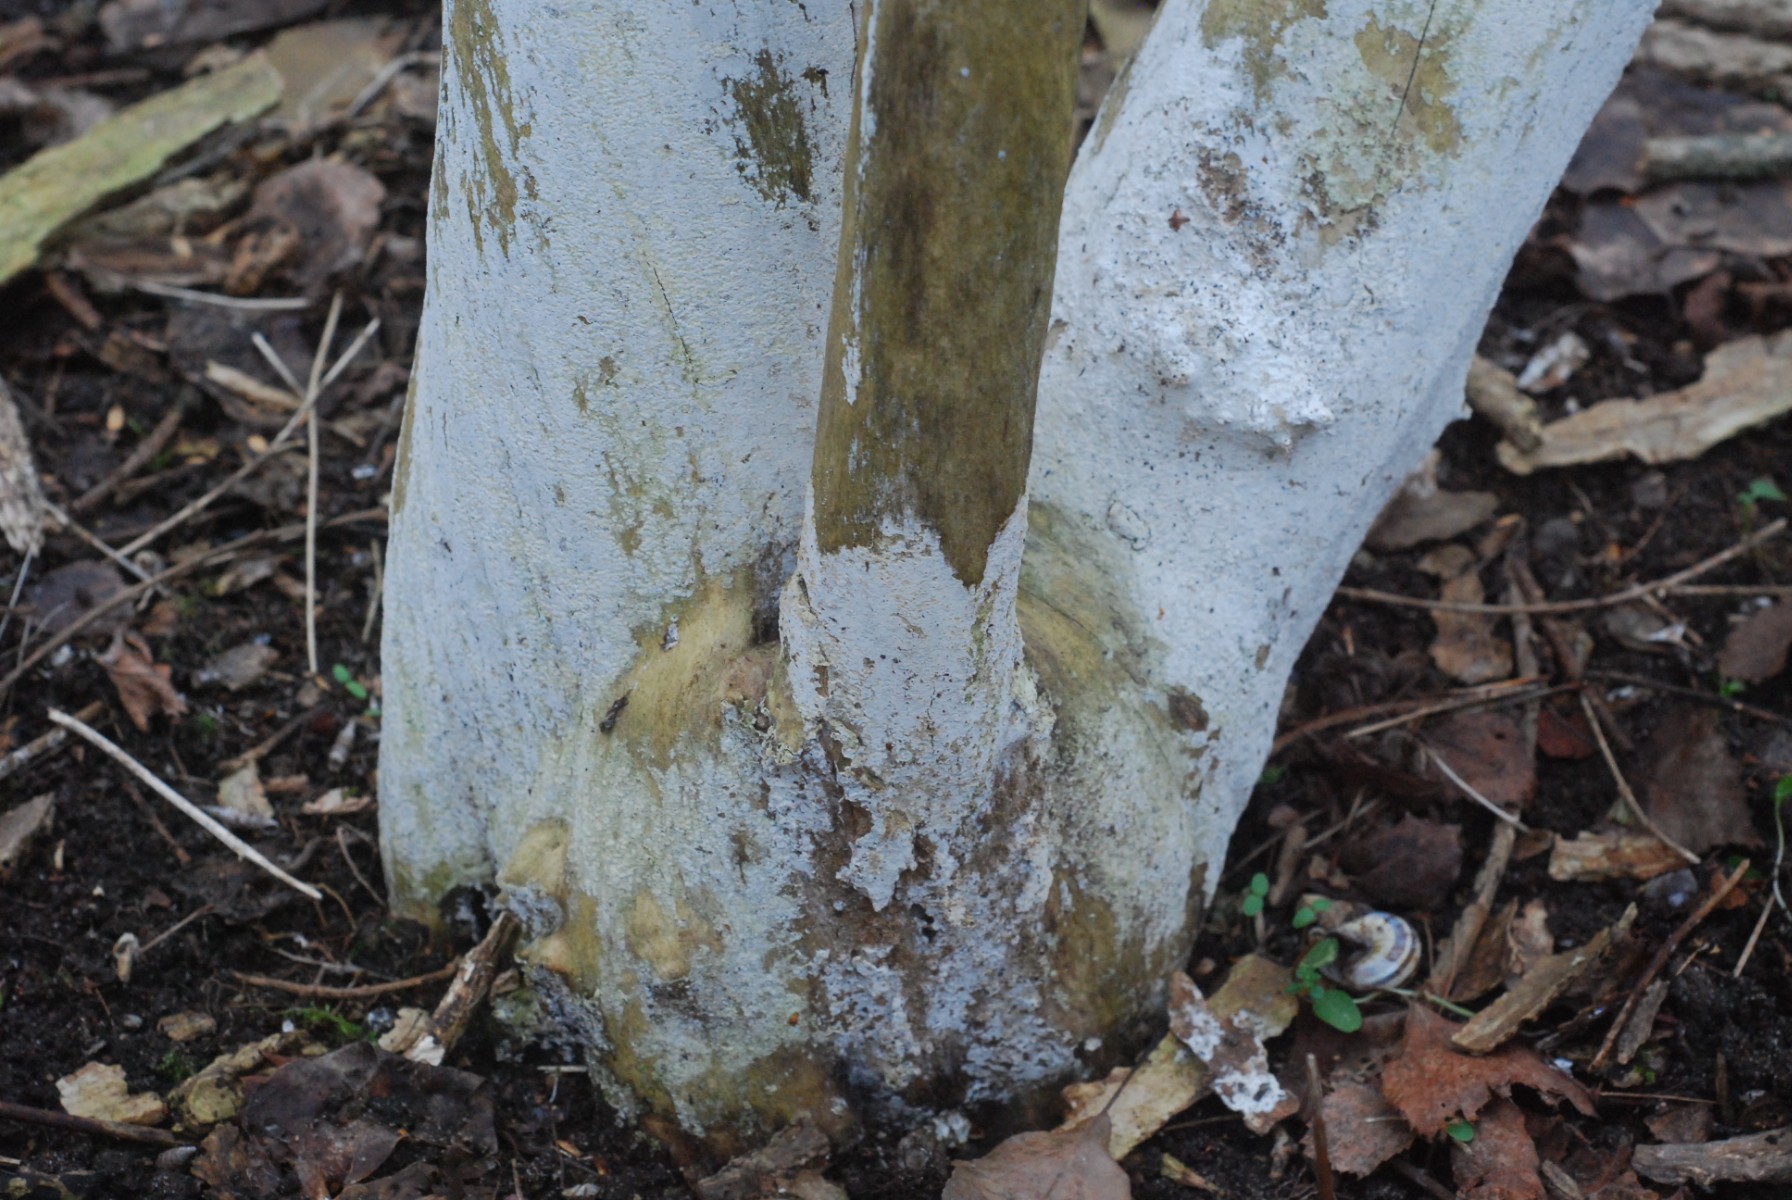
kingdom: Fungi
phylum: Basidiomycota
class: Agaricomycetes
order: Corticiales
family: Corticiaceae
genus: Lyomyces
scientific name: Lyomyces sambuci
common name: almindelig hyldehinde
